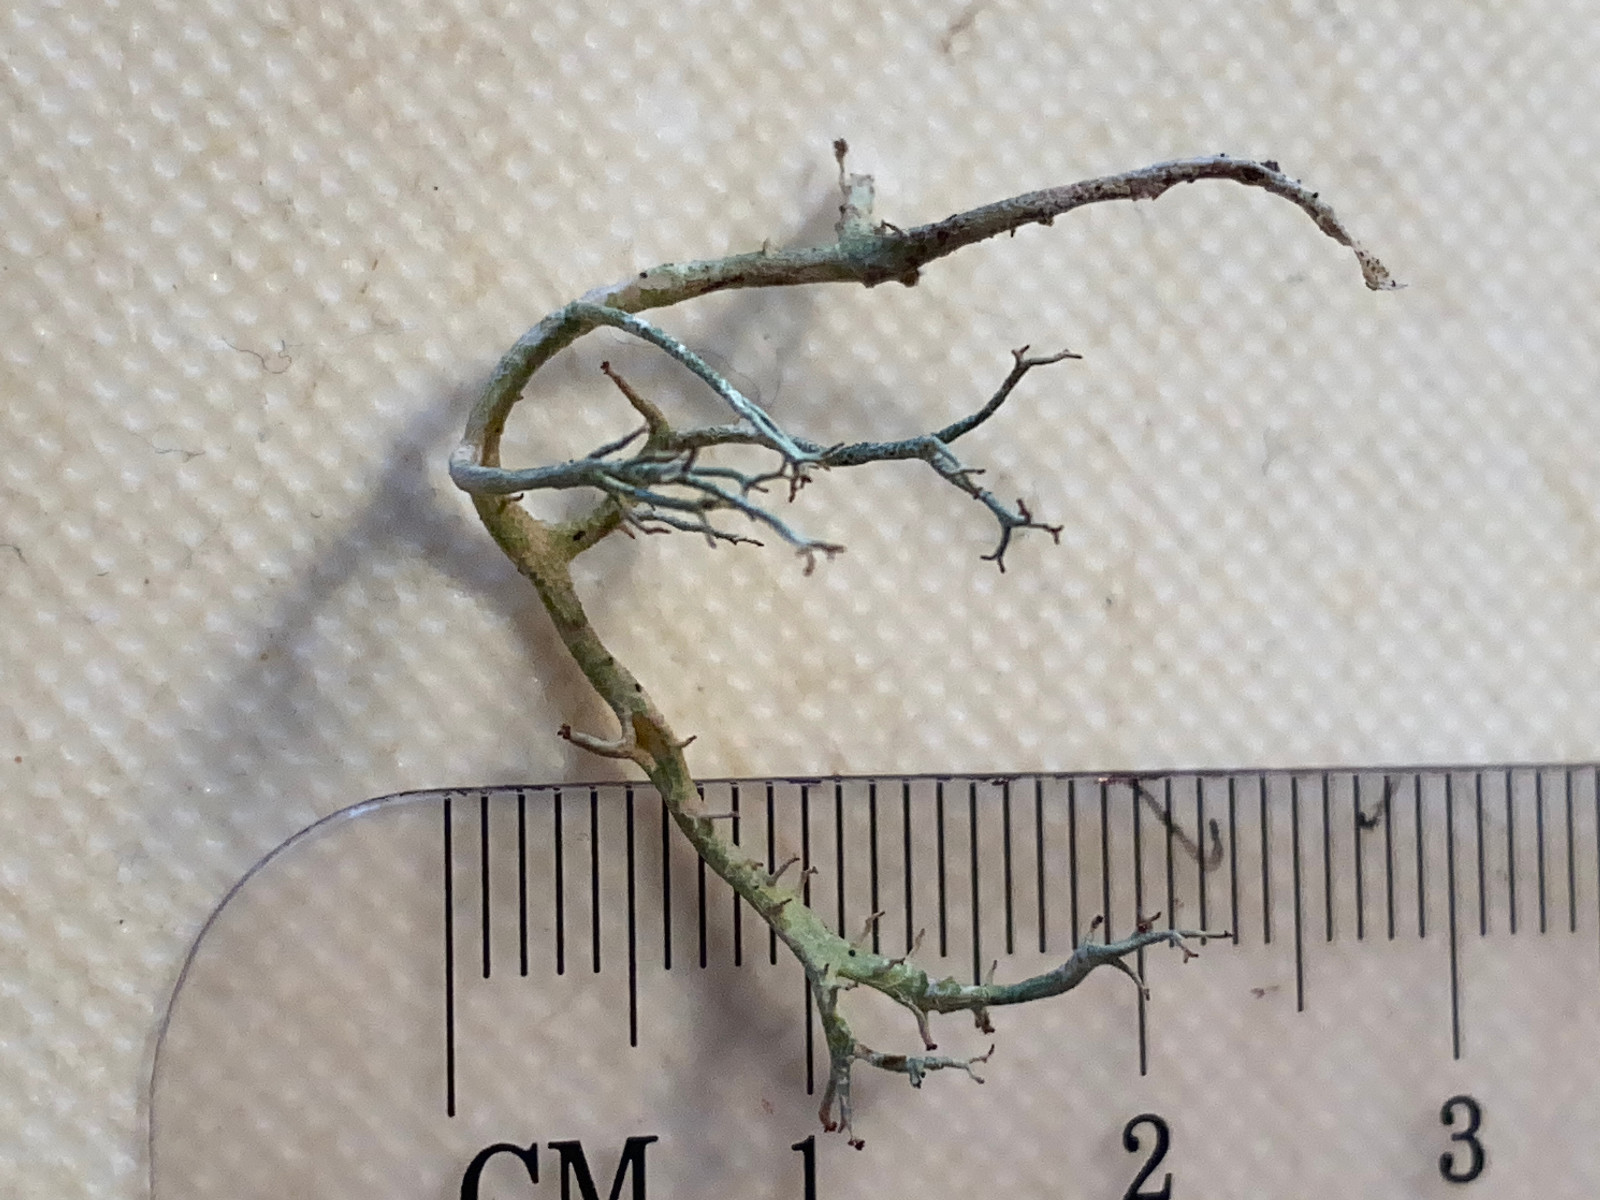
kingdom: Fungi
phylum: Ascomycota
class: Lecanoromycetes
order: Lecanorales
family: Cladoniaceae
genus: Cladonia
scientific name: Cladonia furcata
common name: kløftet bægerlav
